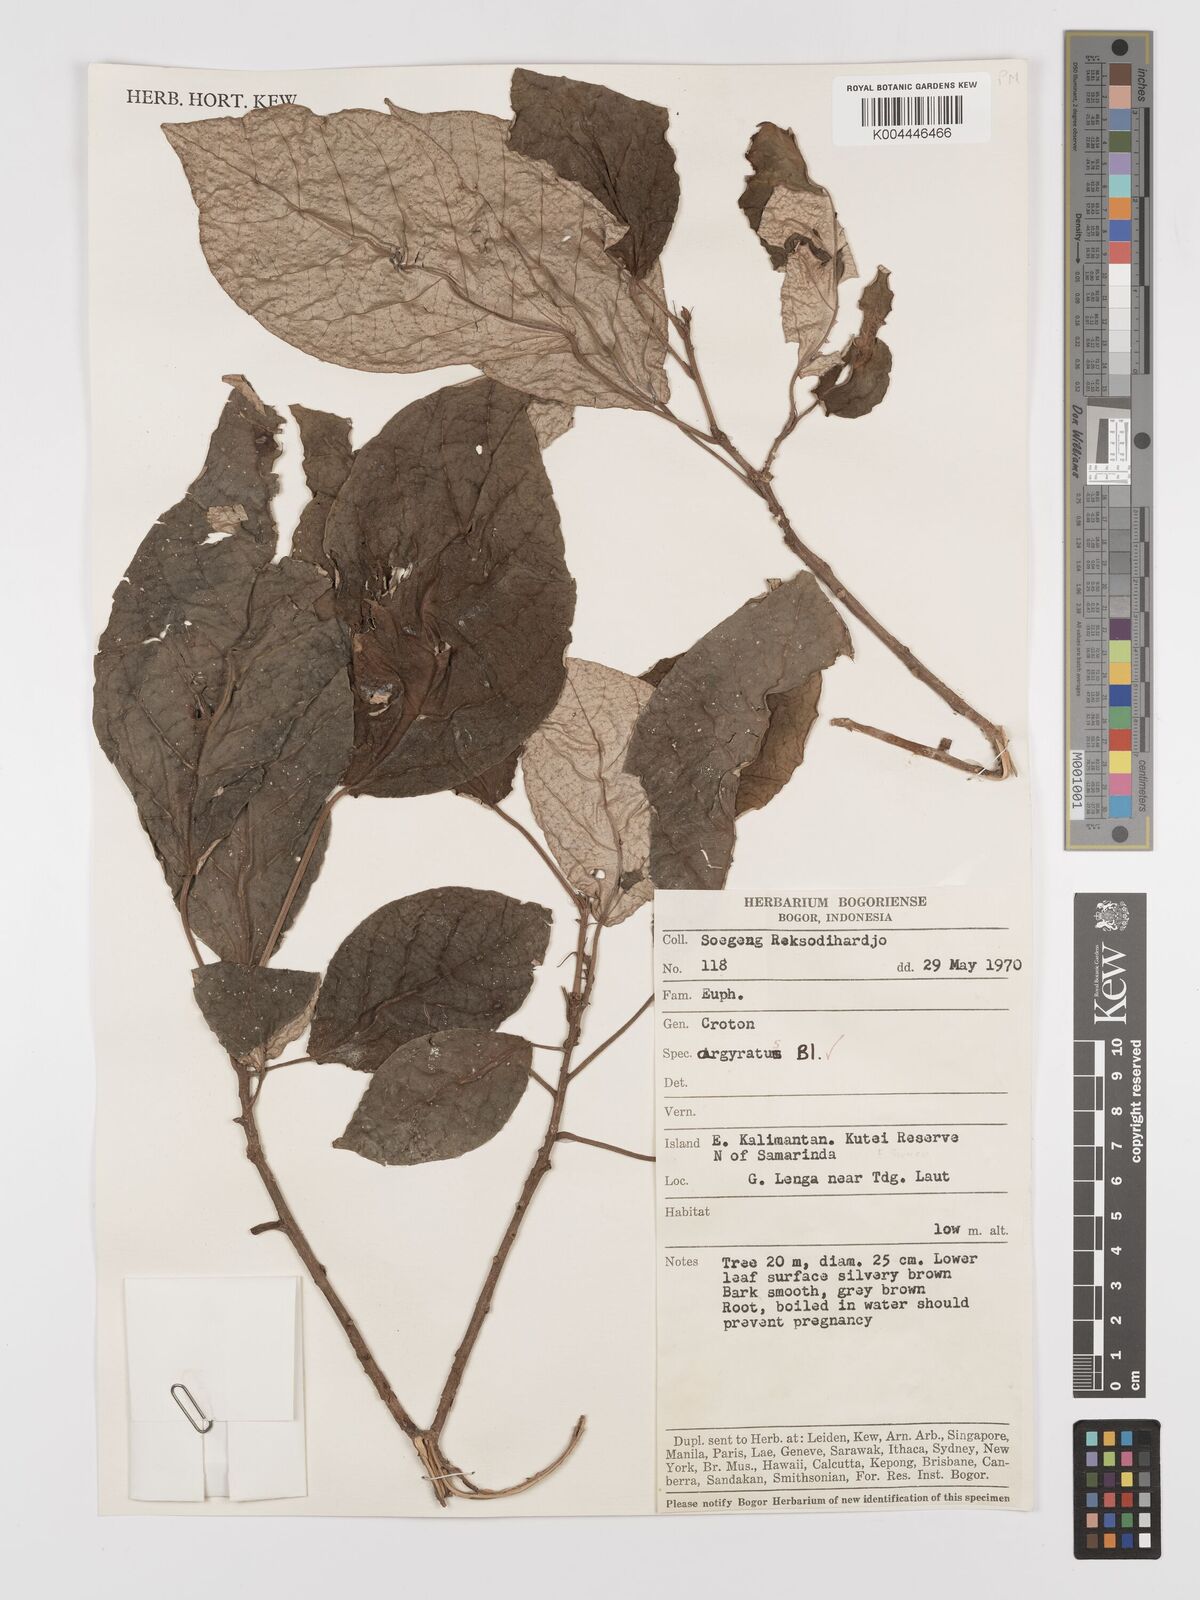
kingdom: Plantae
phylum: Tracheophyta
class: Magnoliopsida
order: Malpighiales
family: Euphorbiaceae
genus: Croton
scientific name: Croton argyratus
